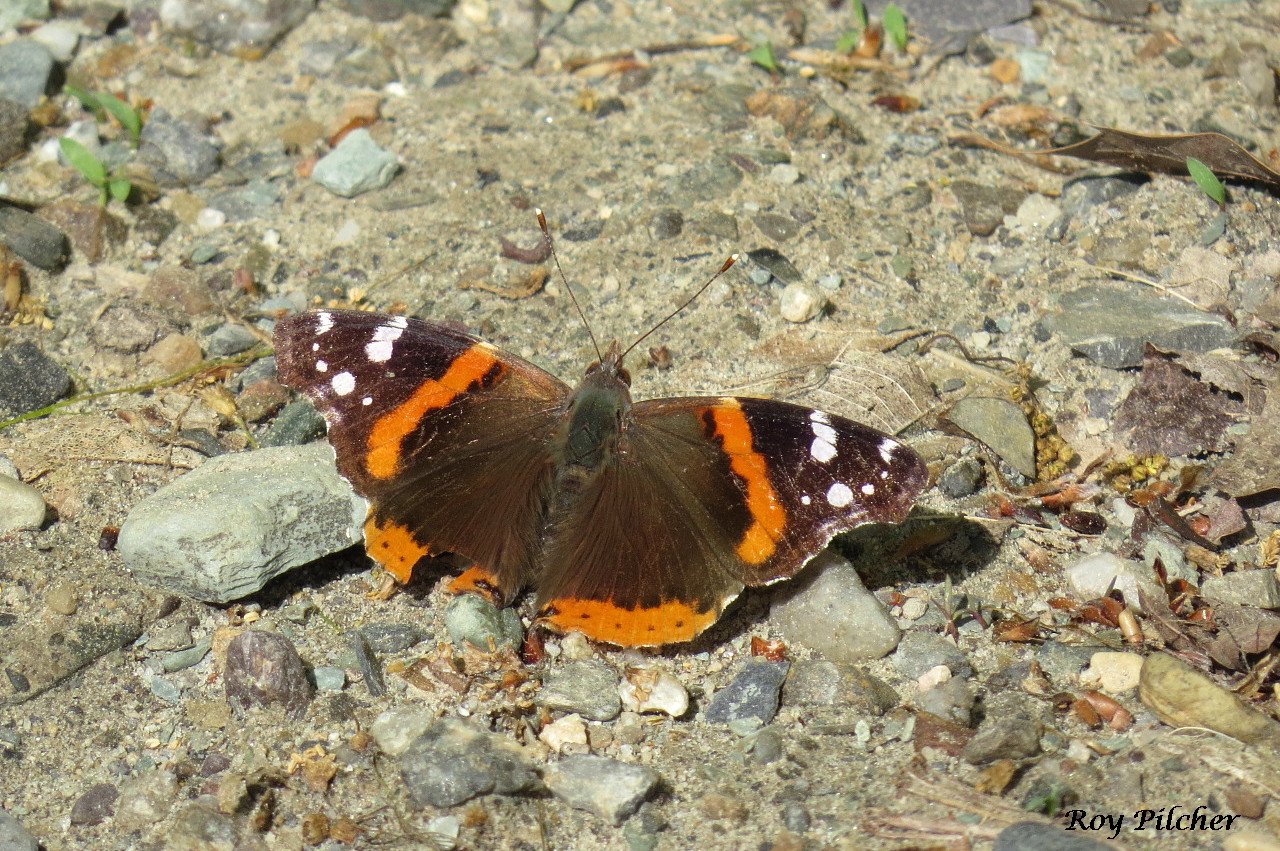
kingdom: Animalia
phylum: Arthropoda
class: Insecta
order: Lepidoptera
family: Nymphalidae
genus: Vanessa
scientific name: Vanessa atalanta
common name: Red Admiral
